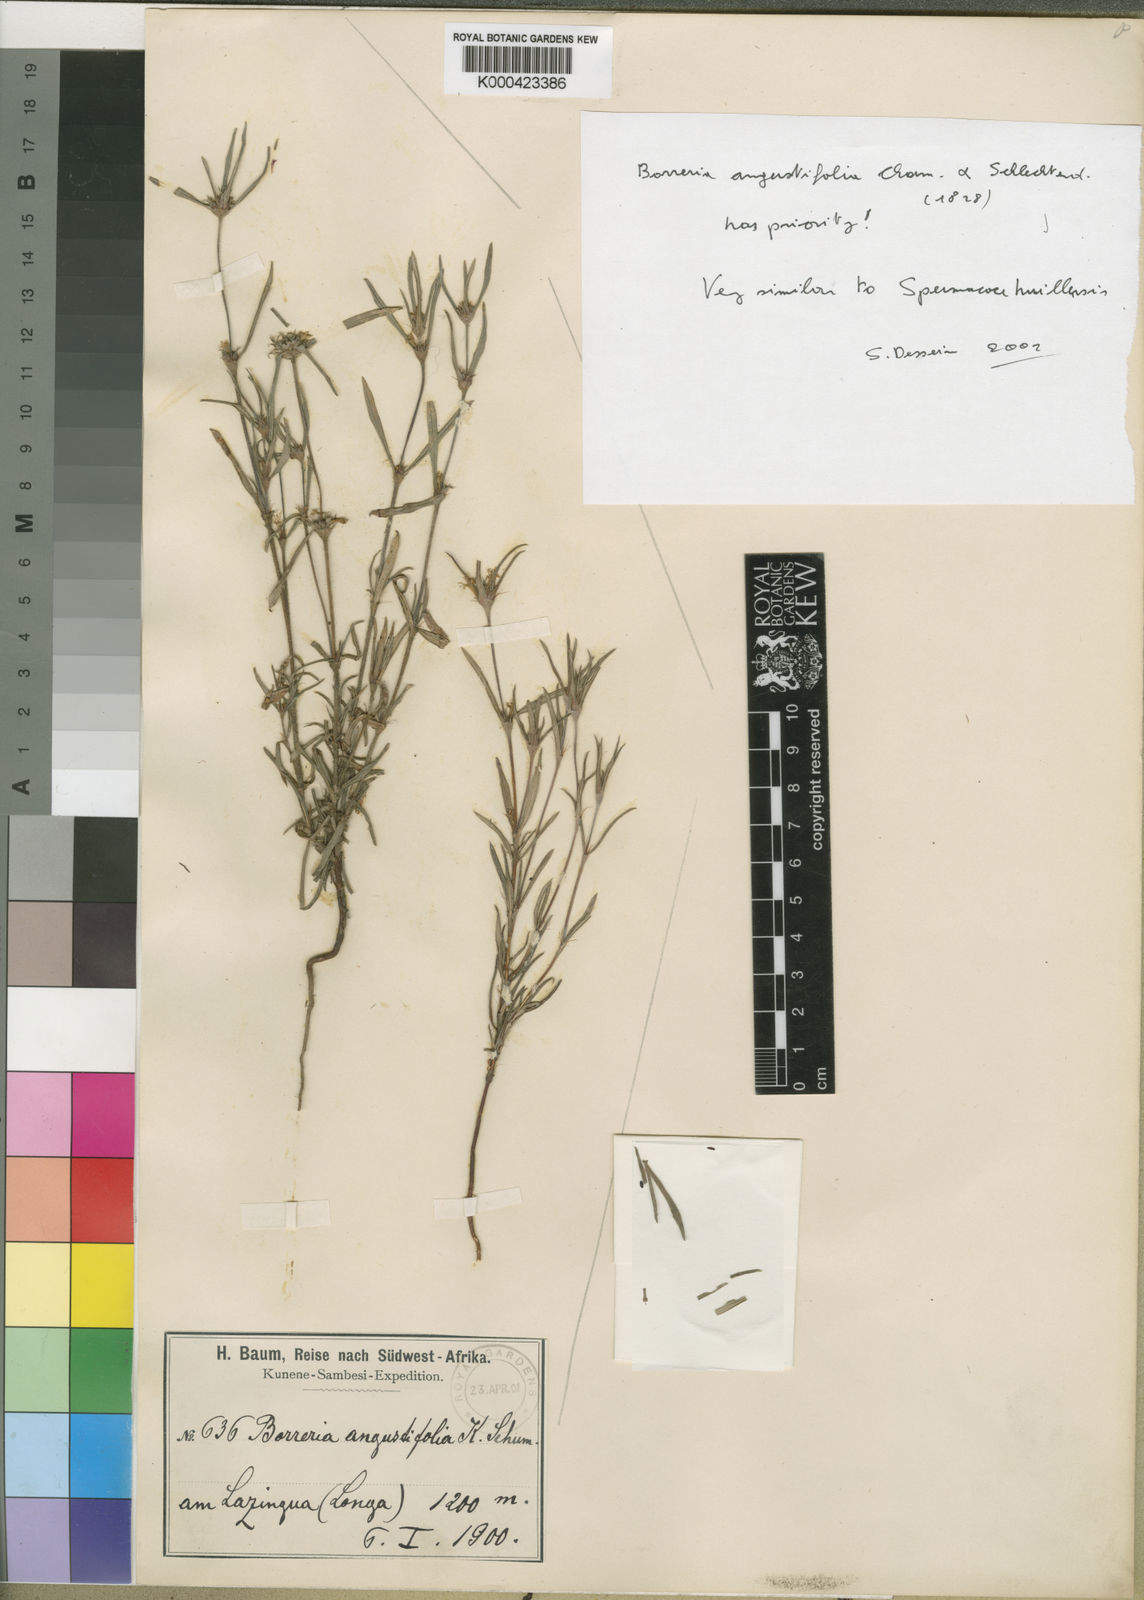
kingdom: Plantae
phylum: Tracheophyta
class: Magnoliopsida
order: Gentianales
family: Rubiaceae
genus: Galianthe
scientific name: Galianthe angustifolia
